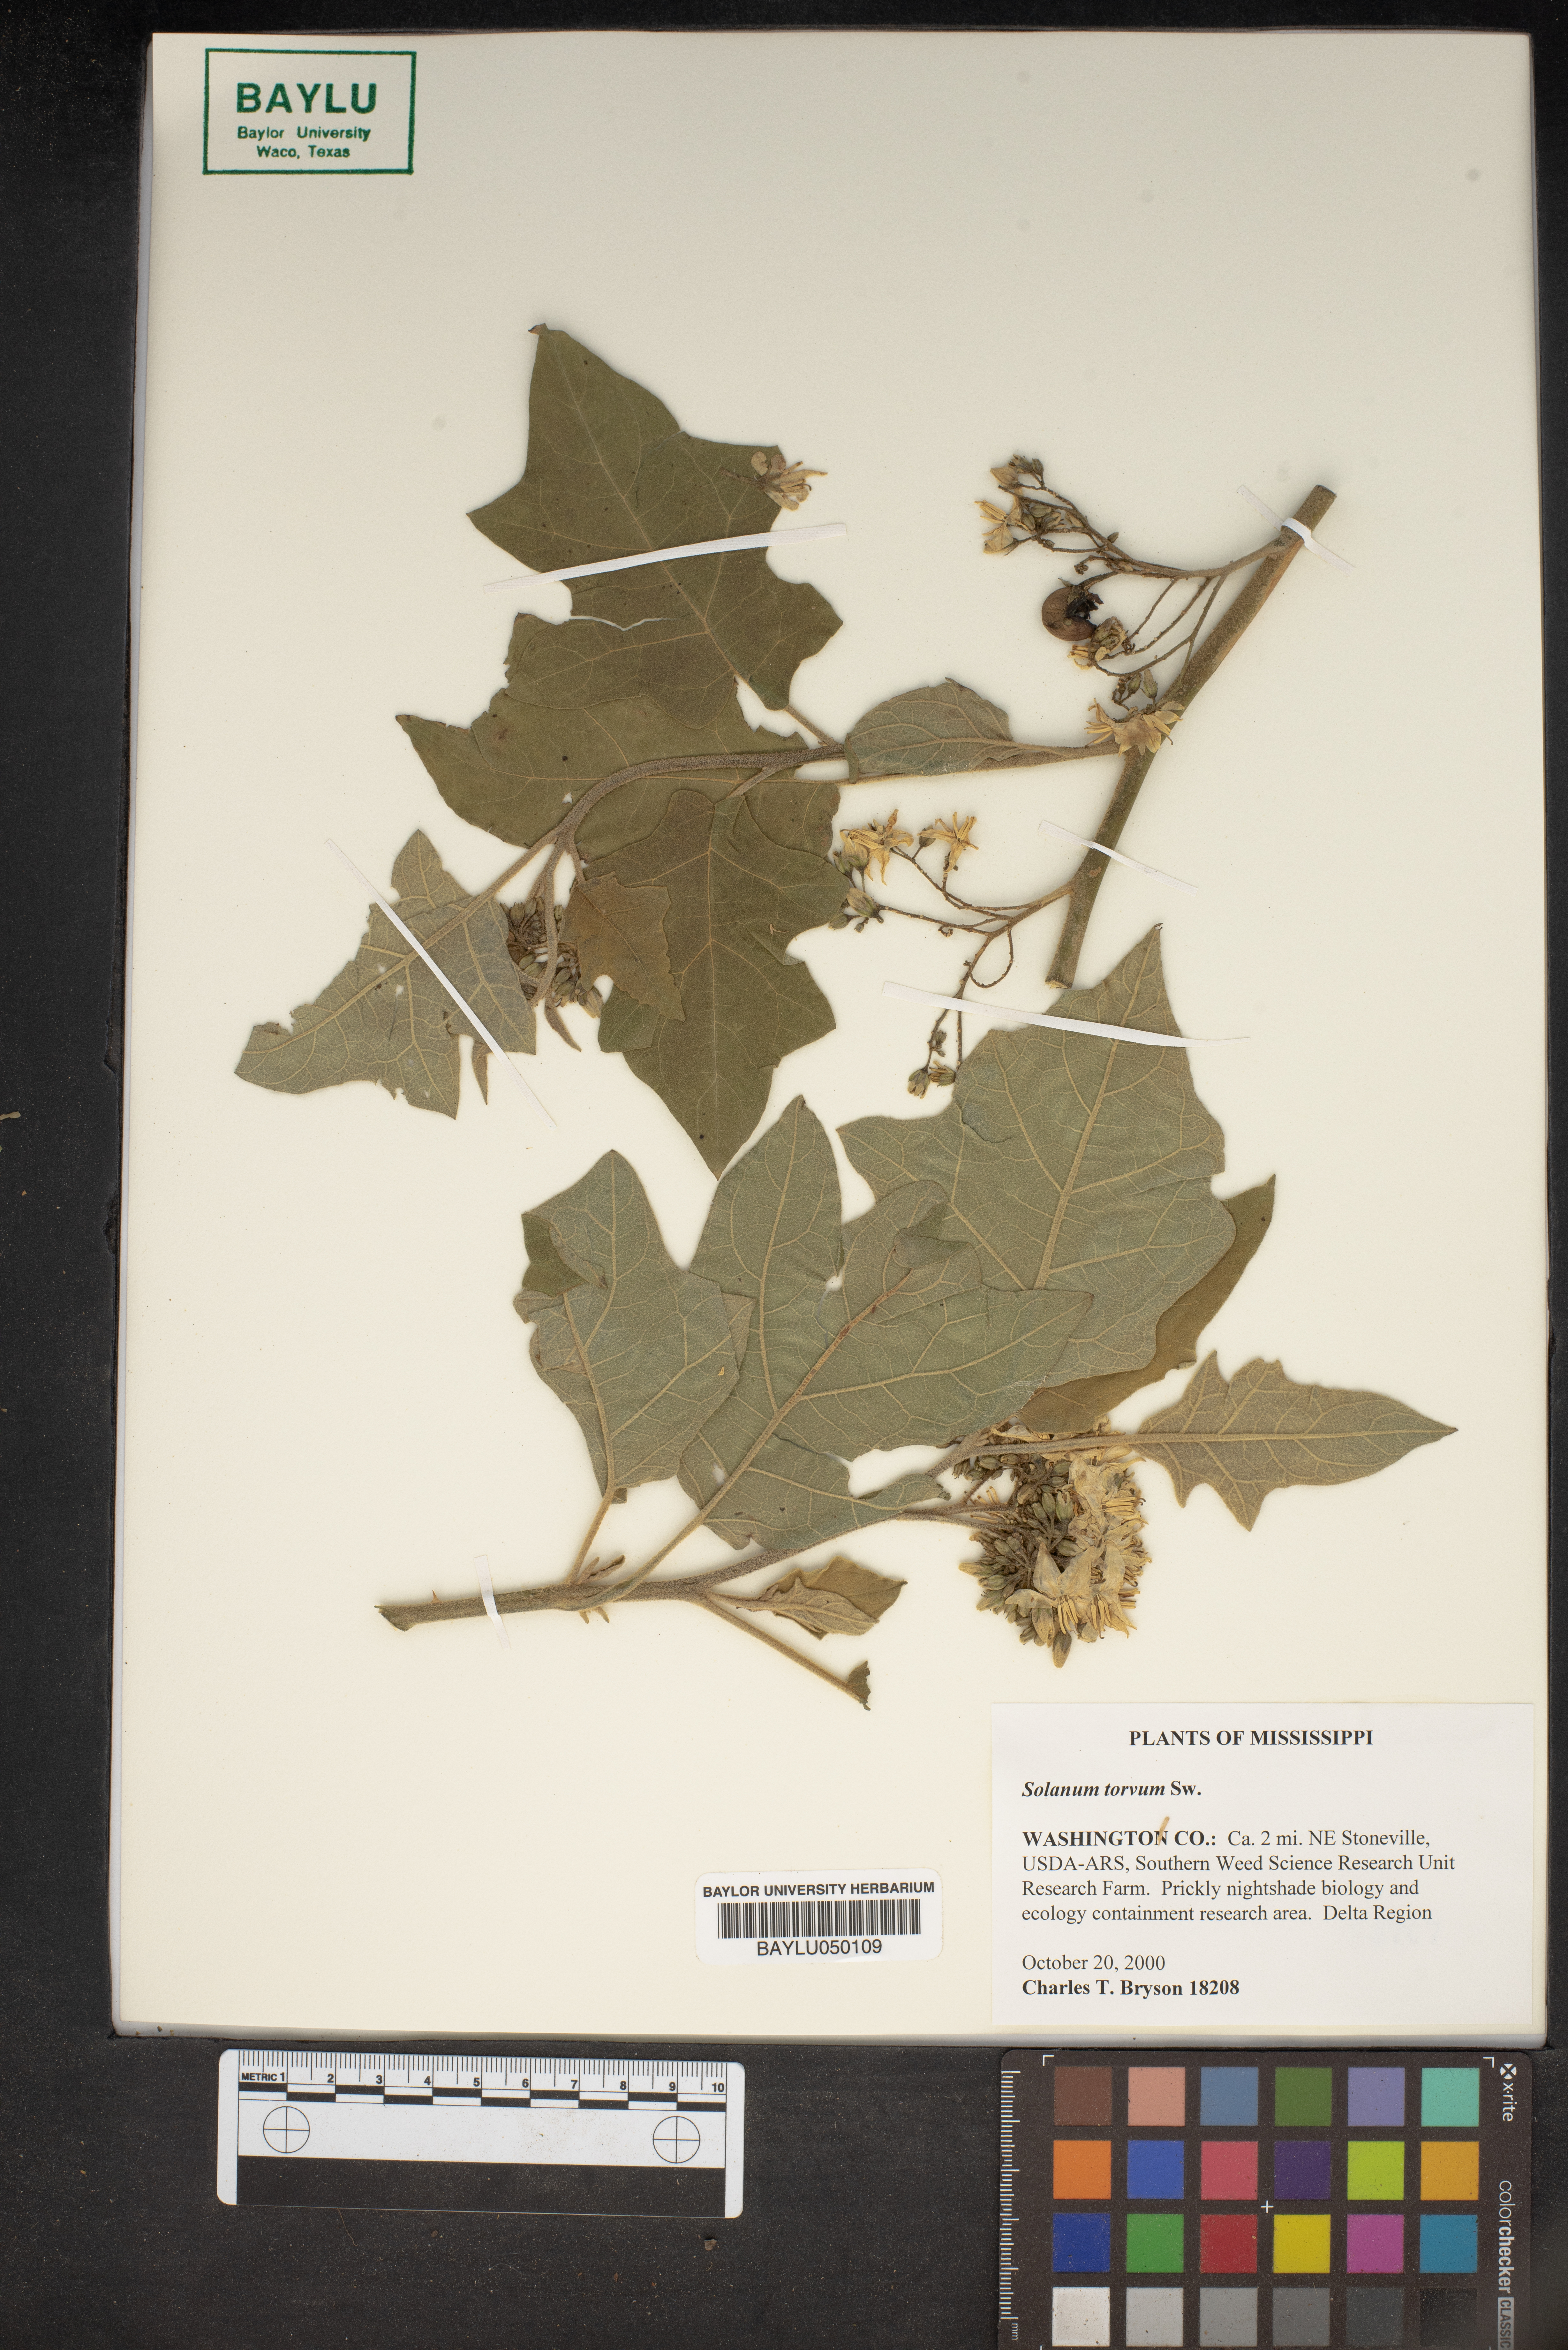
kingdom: Plantae
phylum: Tracheophyta
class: Magnoliopsida
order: Solanales
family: Solanaceae
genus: Solanum
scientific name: Solanum torvum
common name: Turkey berry
